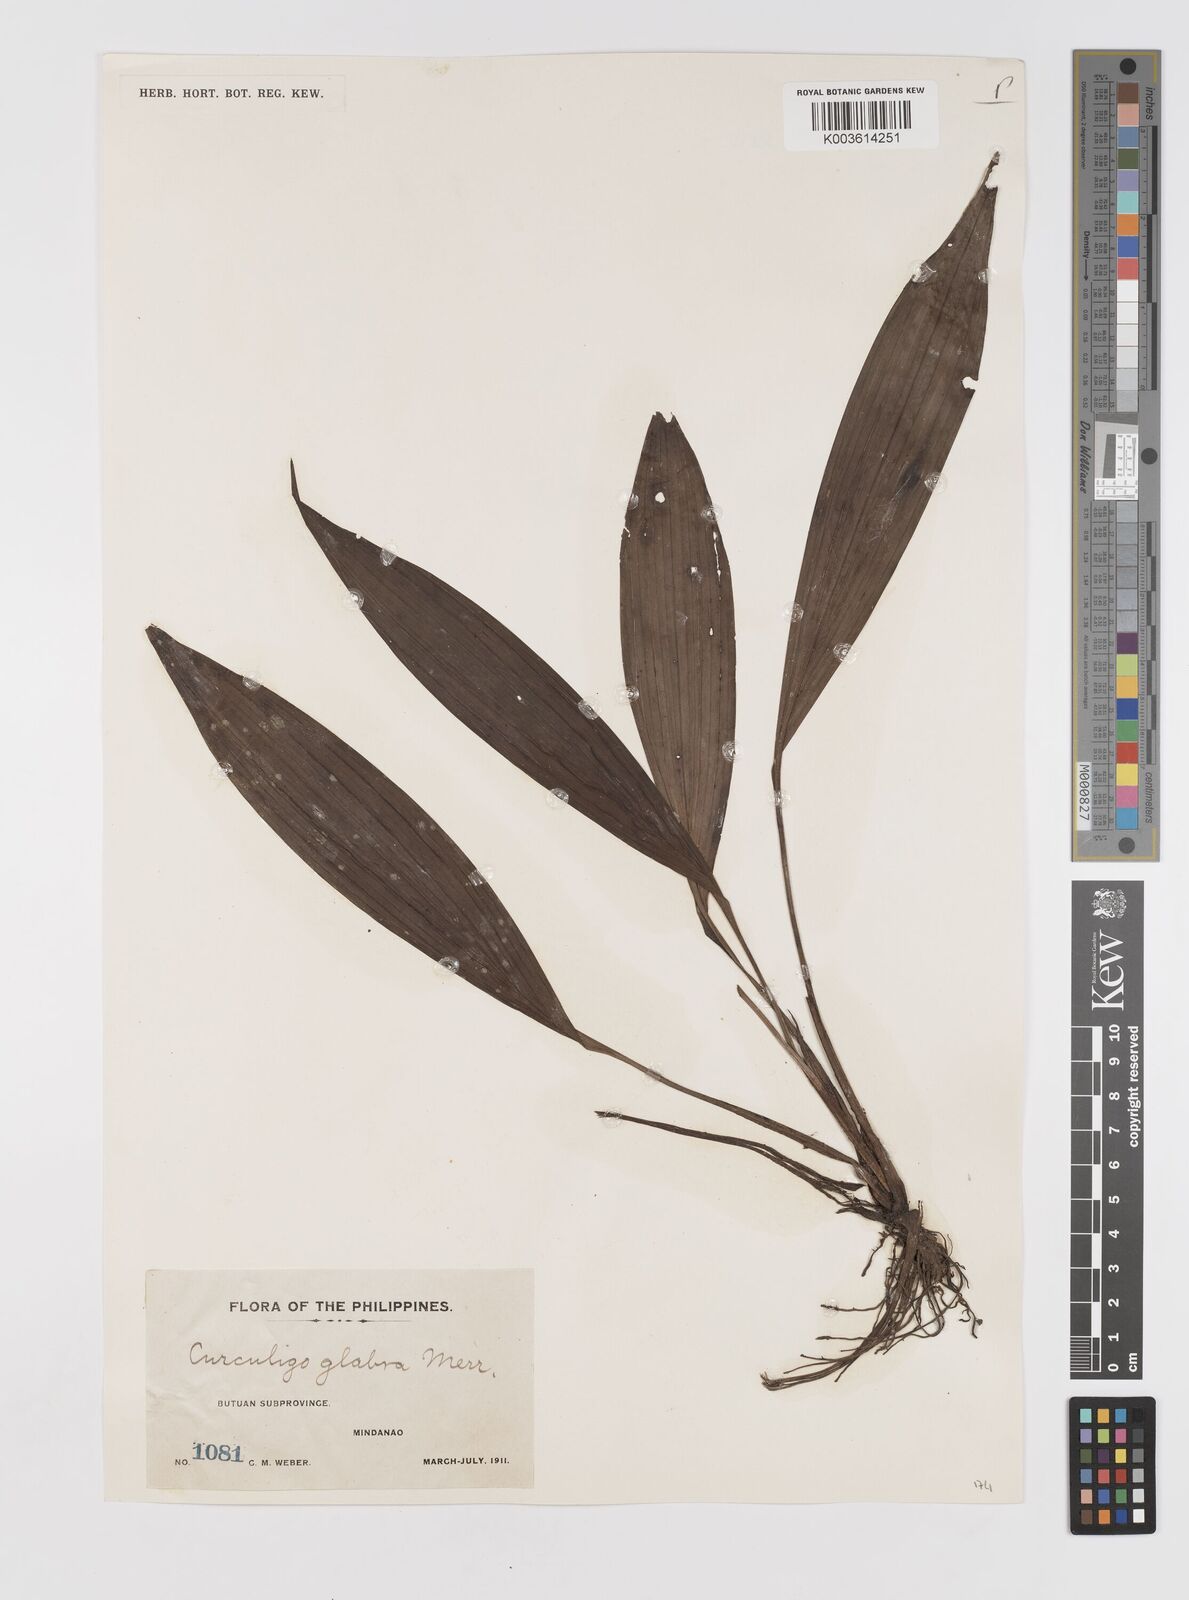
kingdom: Plantae
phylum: Tracheophyta
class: Liliopsida
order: Asparagales
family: Hypoxidaceae
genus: Curculigo
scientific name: Curculigo capitulata
